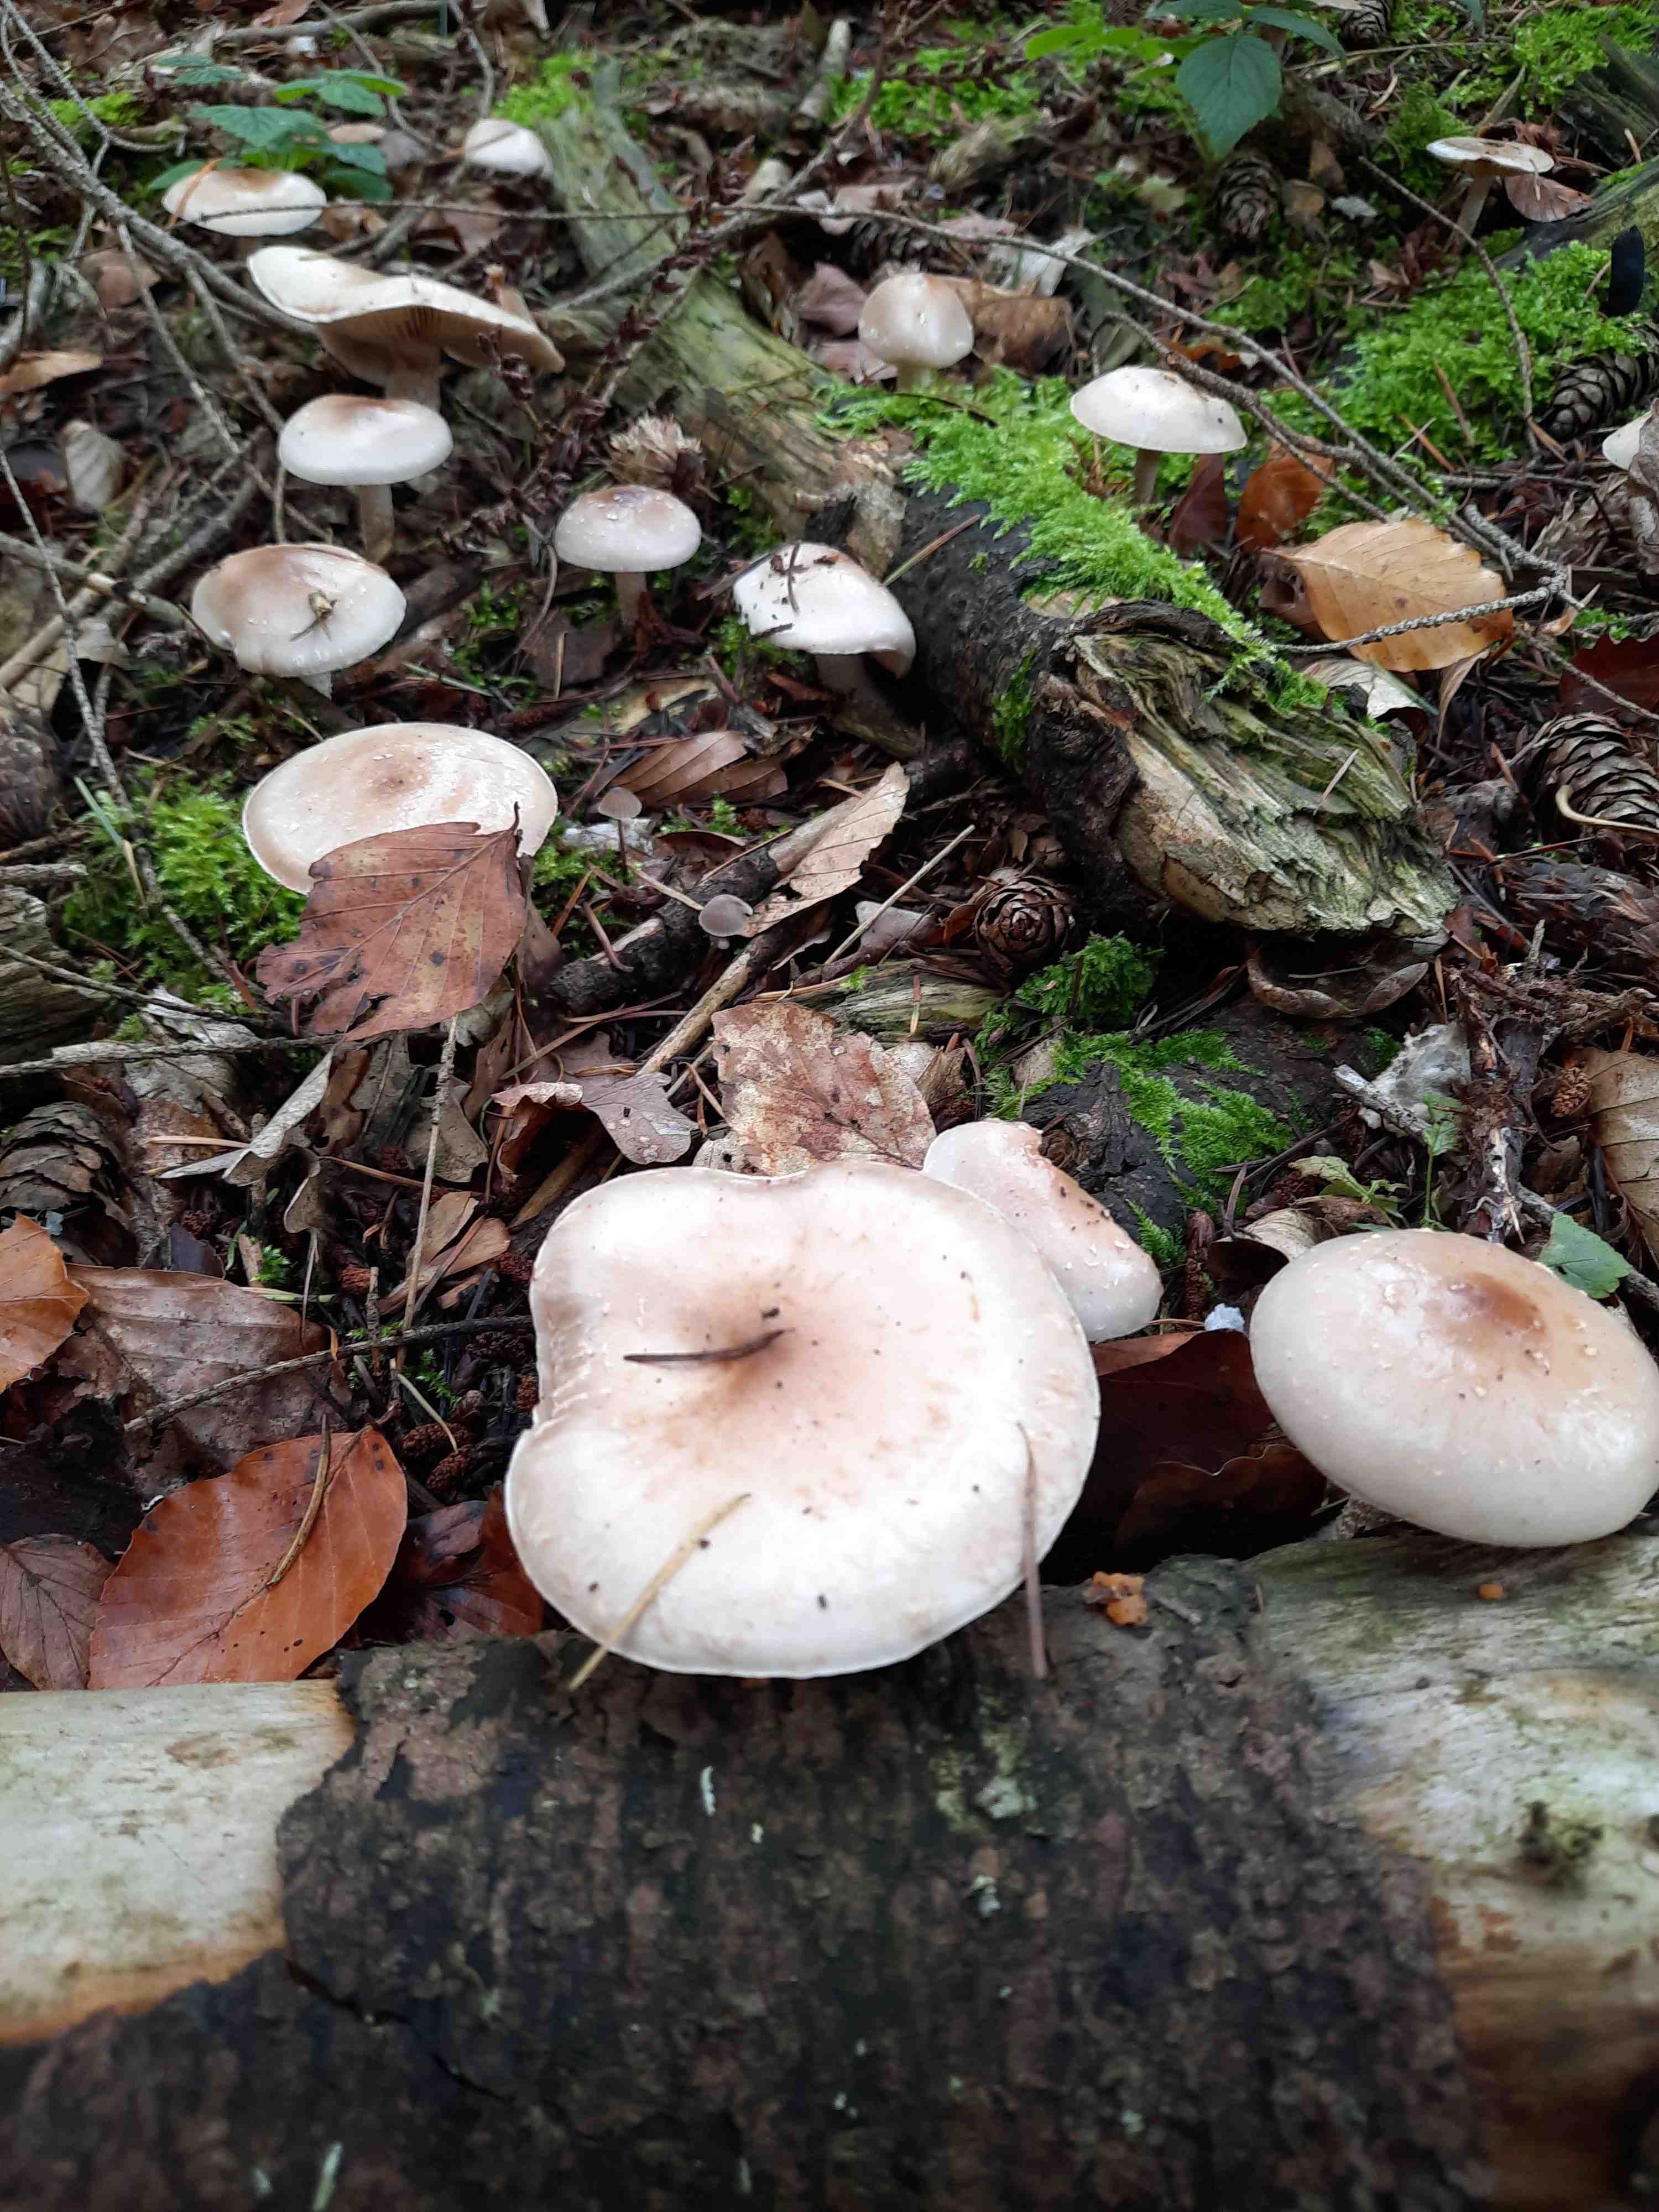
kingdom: Fungi
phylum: Basidiomycota
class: Agaricomycetes
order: Agaricales
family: Strophariaceae
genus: Pholiota
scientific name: Pholiota lenta
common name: løv-skælhat
